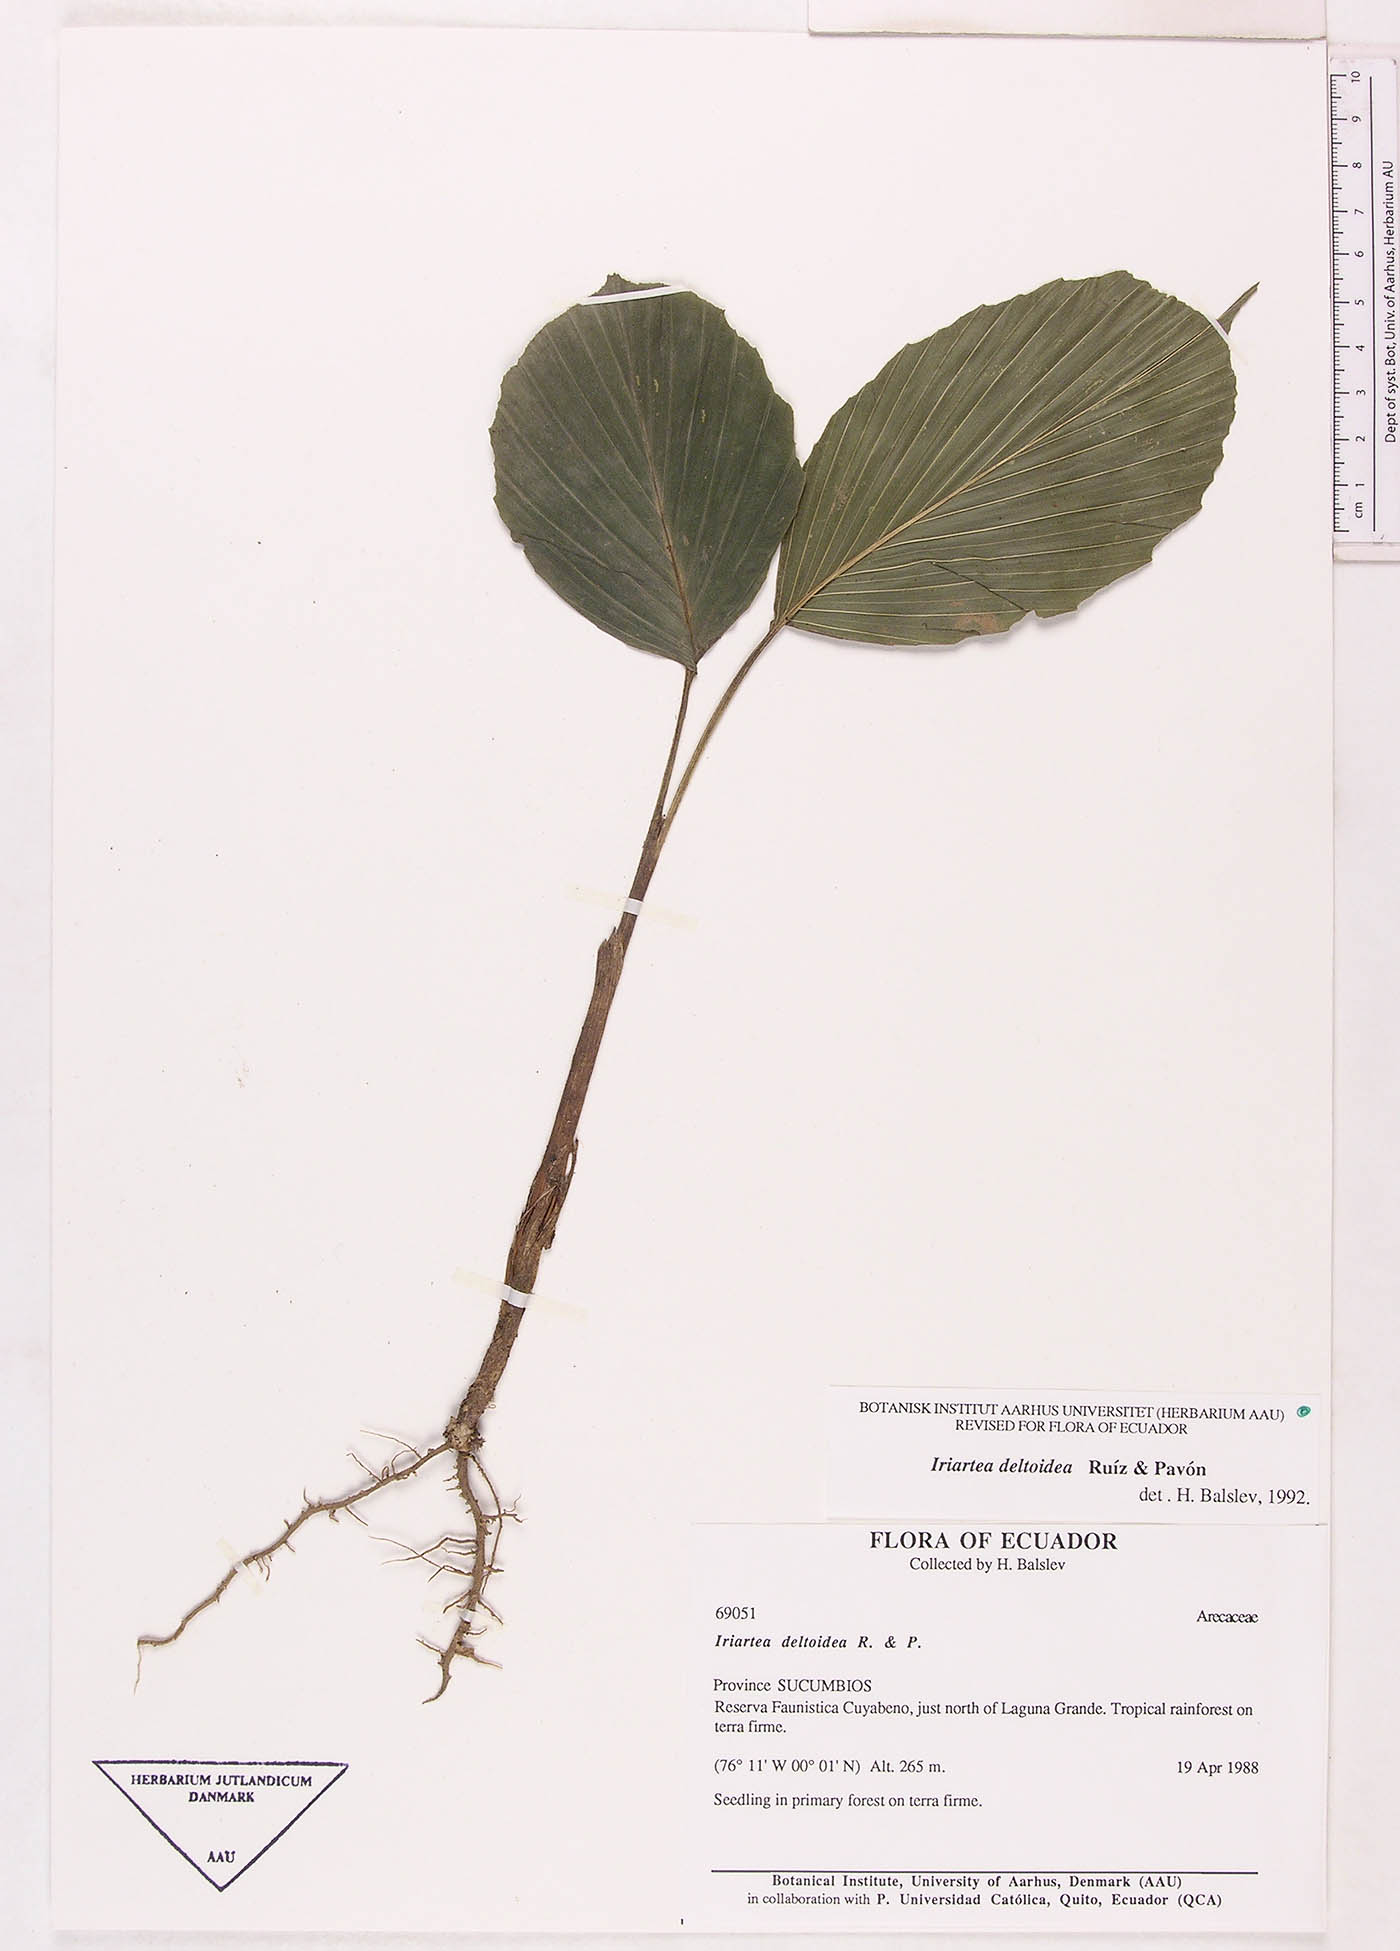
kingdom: Plantae
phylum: Tracheophyta
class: Liliopsida
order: Arecales
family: Arecaceae
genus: Iriartea
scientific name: Iriartea deltoidea
